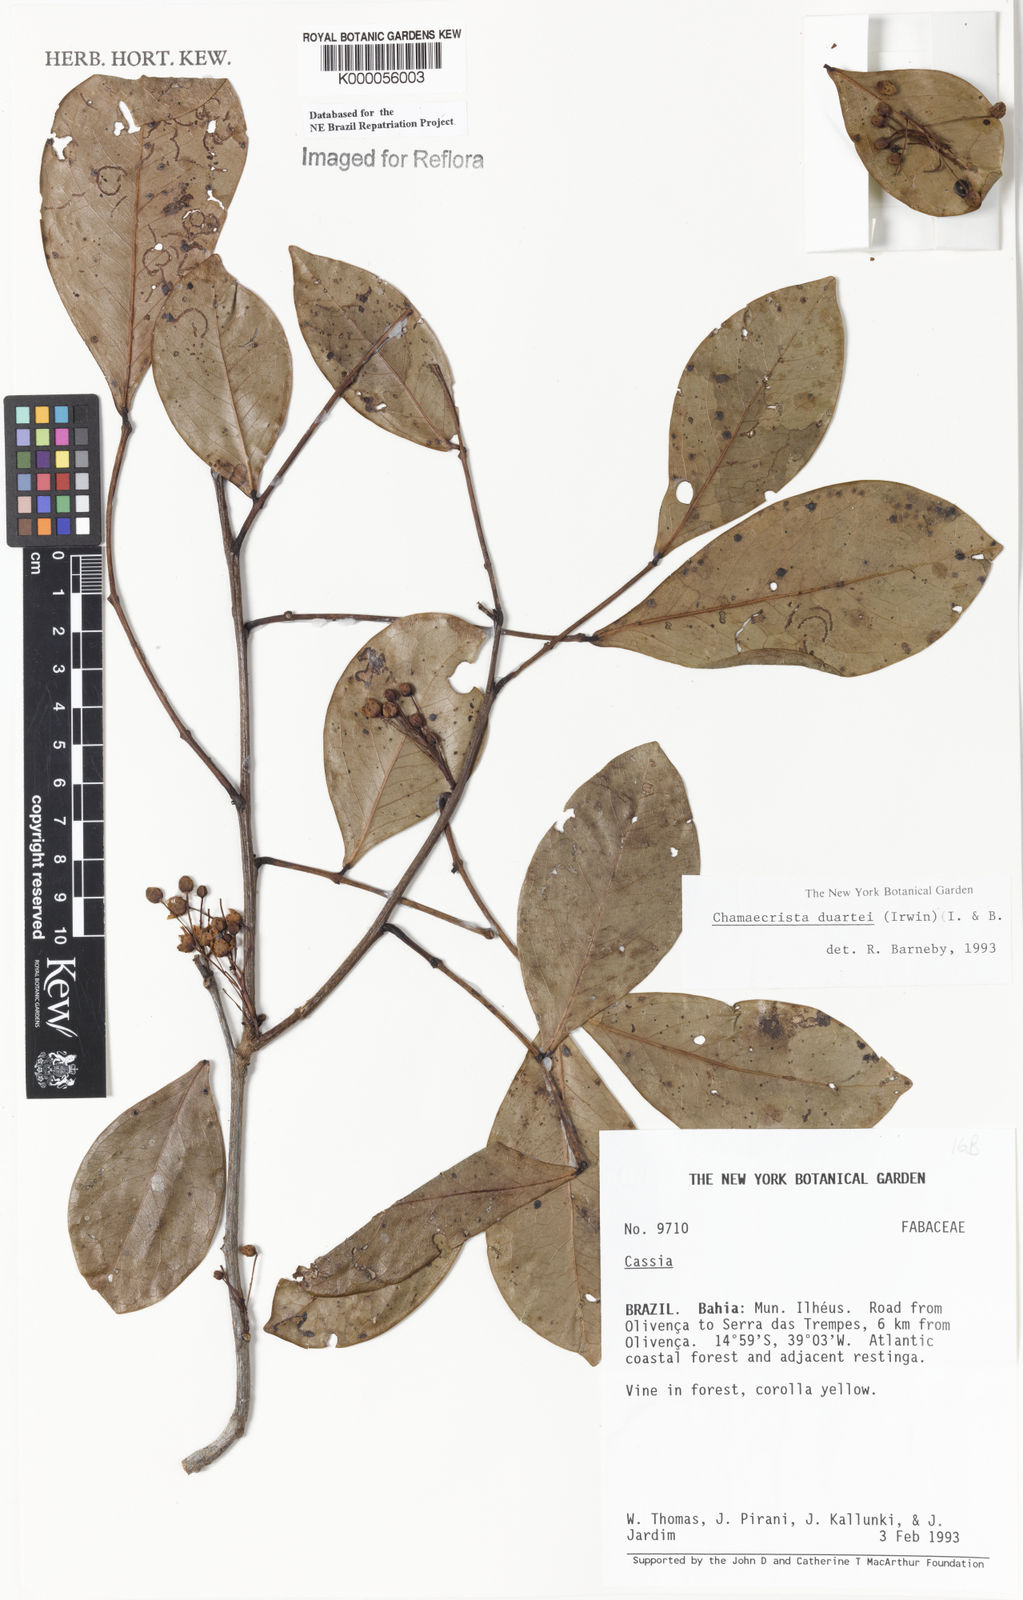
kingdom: Plantae
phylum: Tracheophyta
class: Magnoliopsida
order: Fabales
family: Fabaceae
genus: Chamaecrista
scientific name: Chamaecrista duartei
